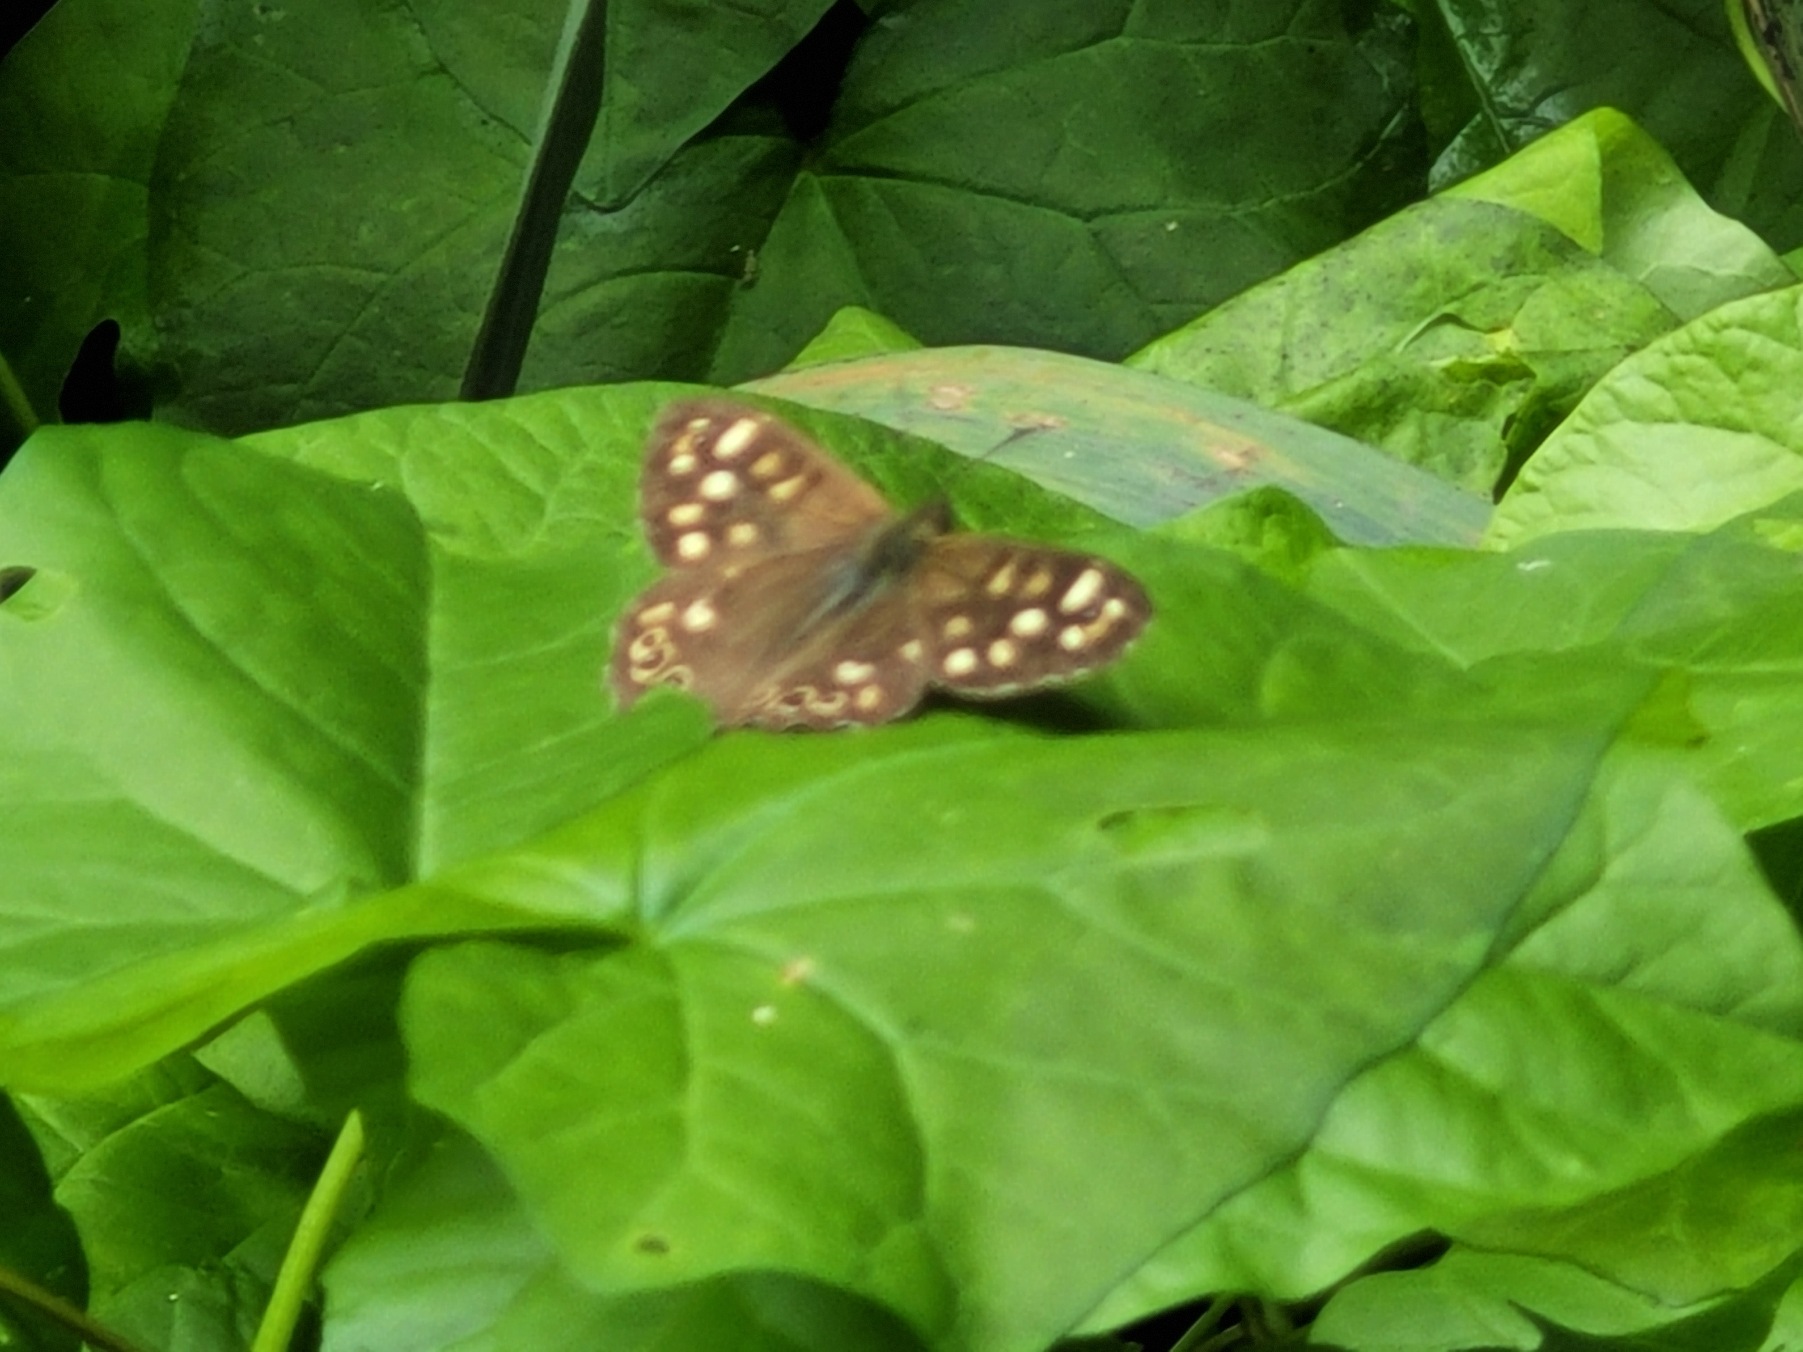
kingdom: Animalia
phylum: Arthropoda
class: Insecta
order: Lepidoptera
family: Nymphalidae
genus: Pararge
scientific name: Pararge aegeria
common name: Skovrandøje
